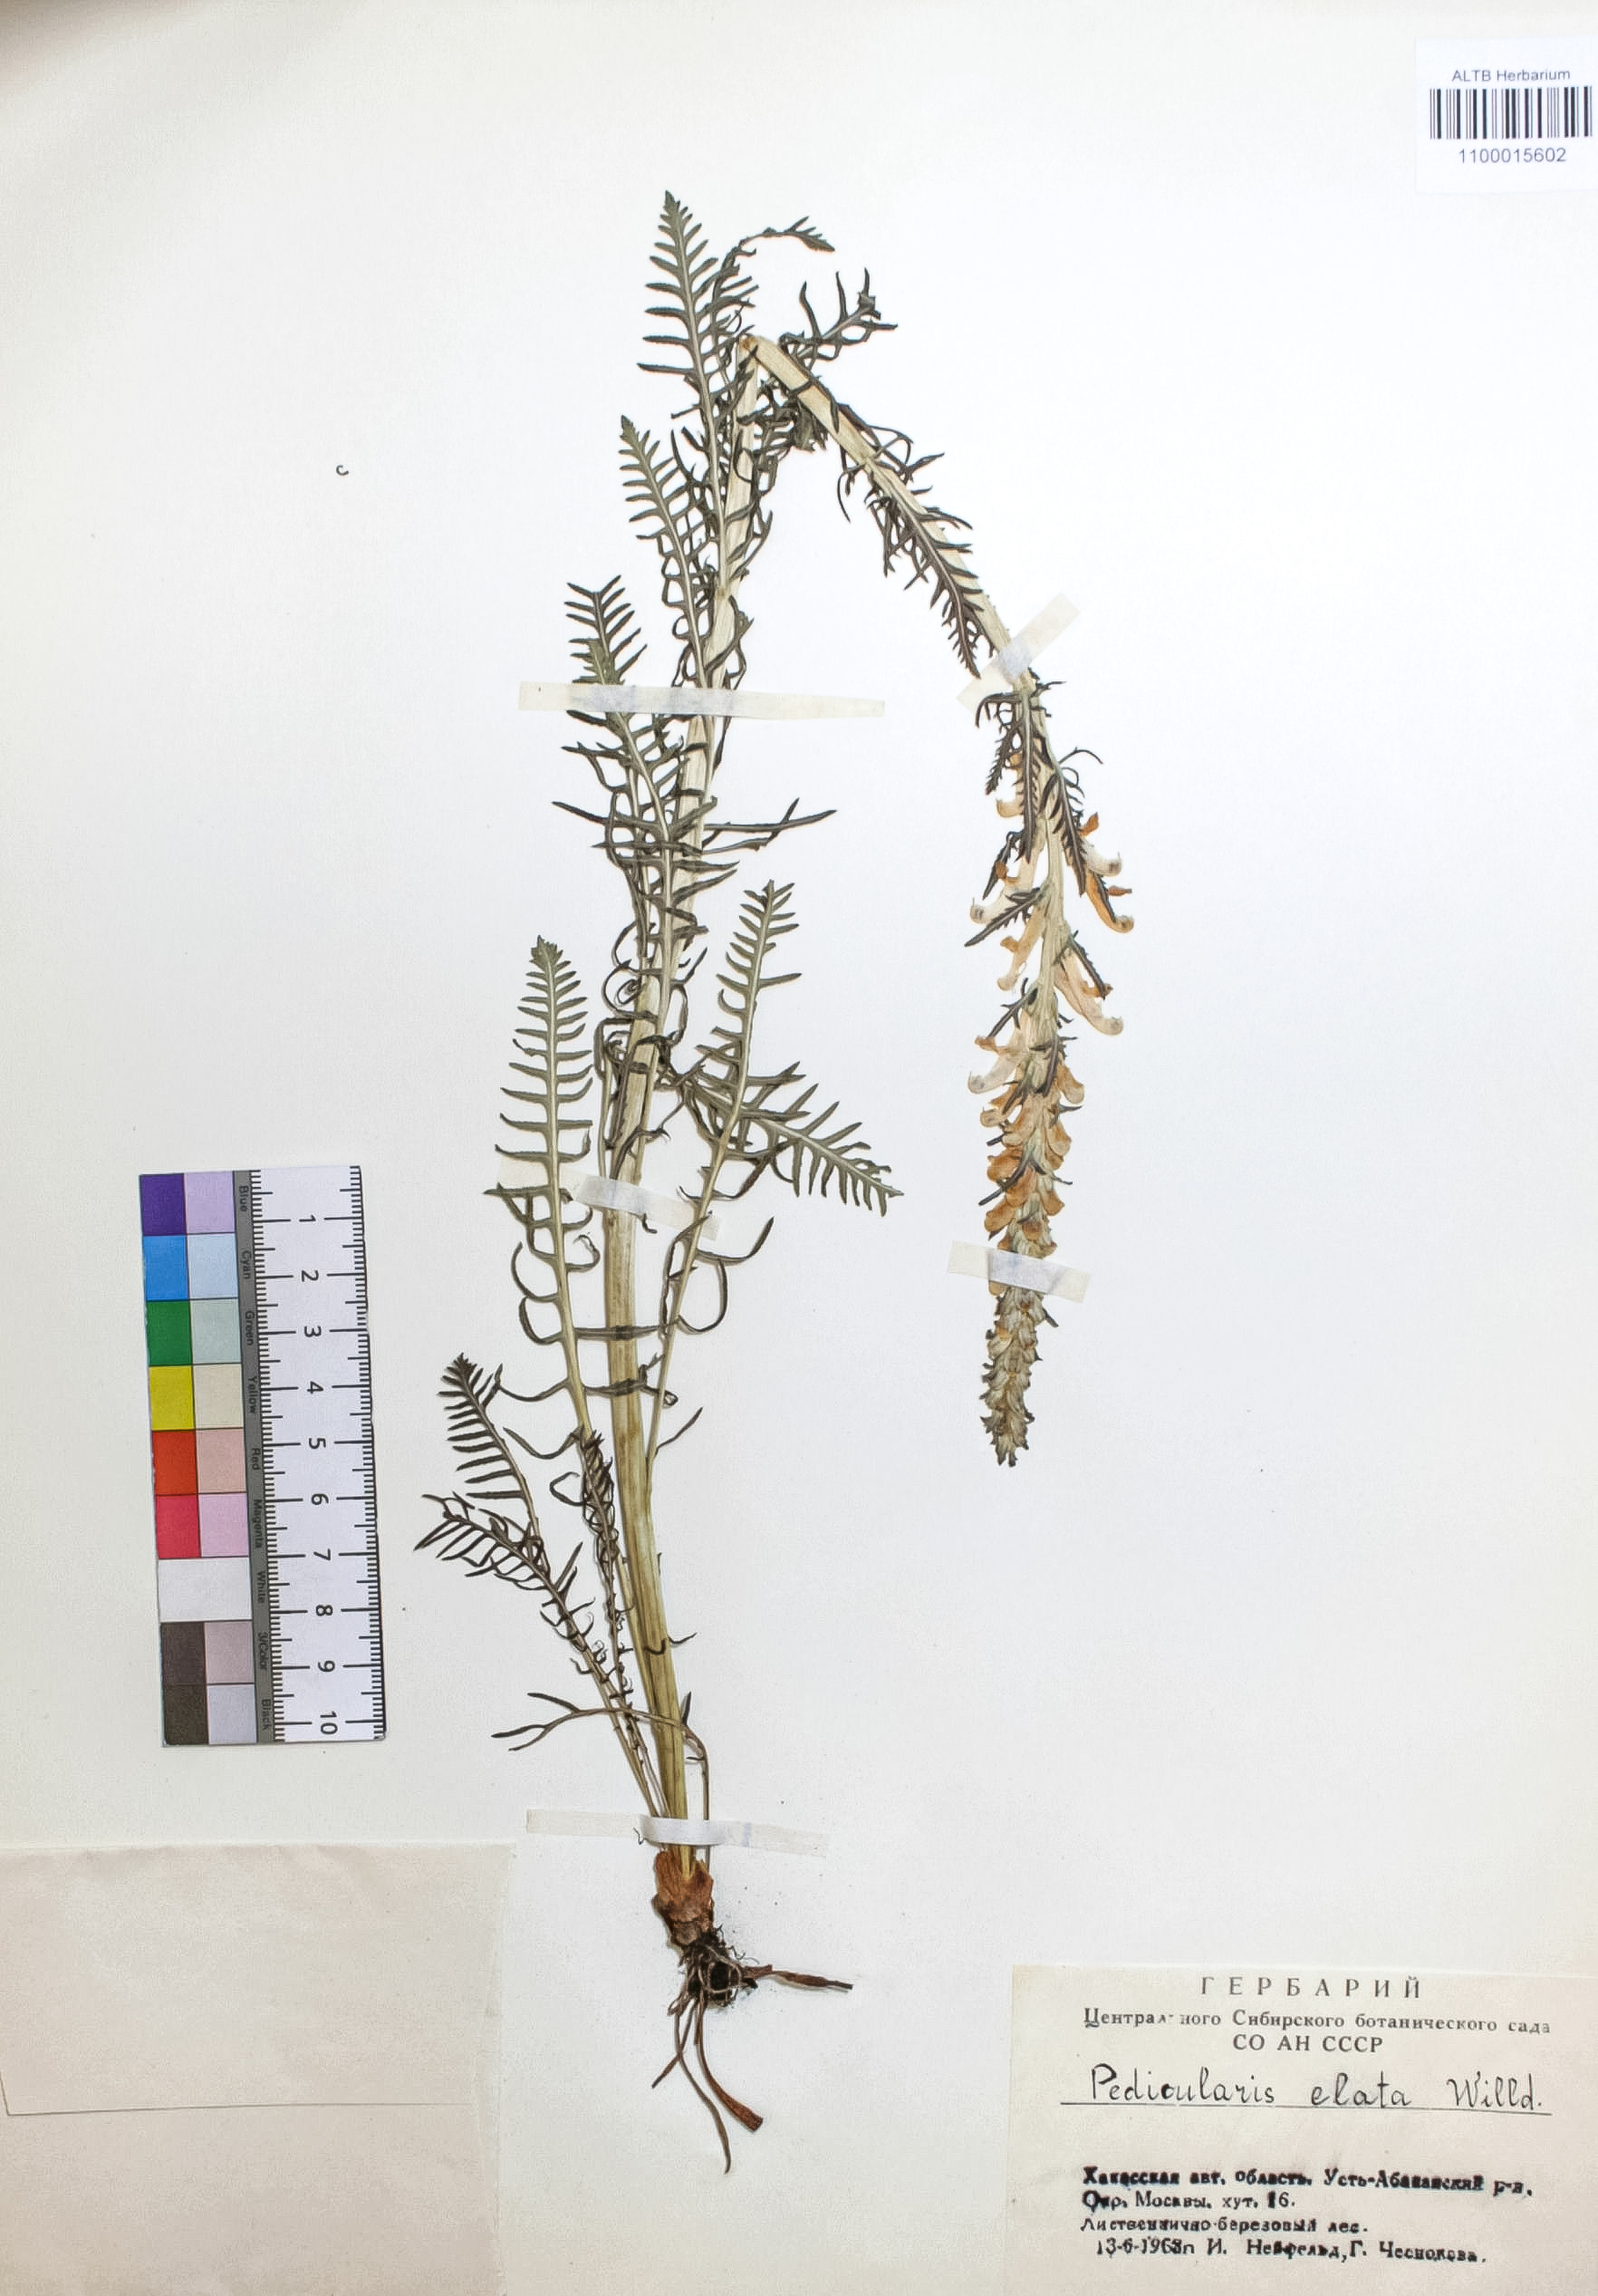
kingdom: Plantae
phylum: Tracheophyta
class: Magnoliopsida
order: Lamiales
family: Orobanchaceae
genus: Pedicularis
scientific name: Pedicularis elata
